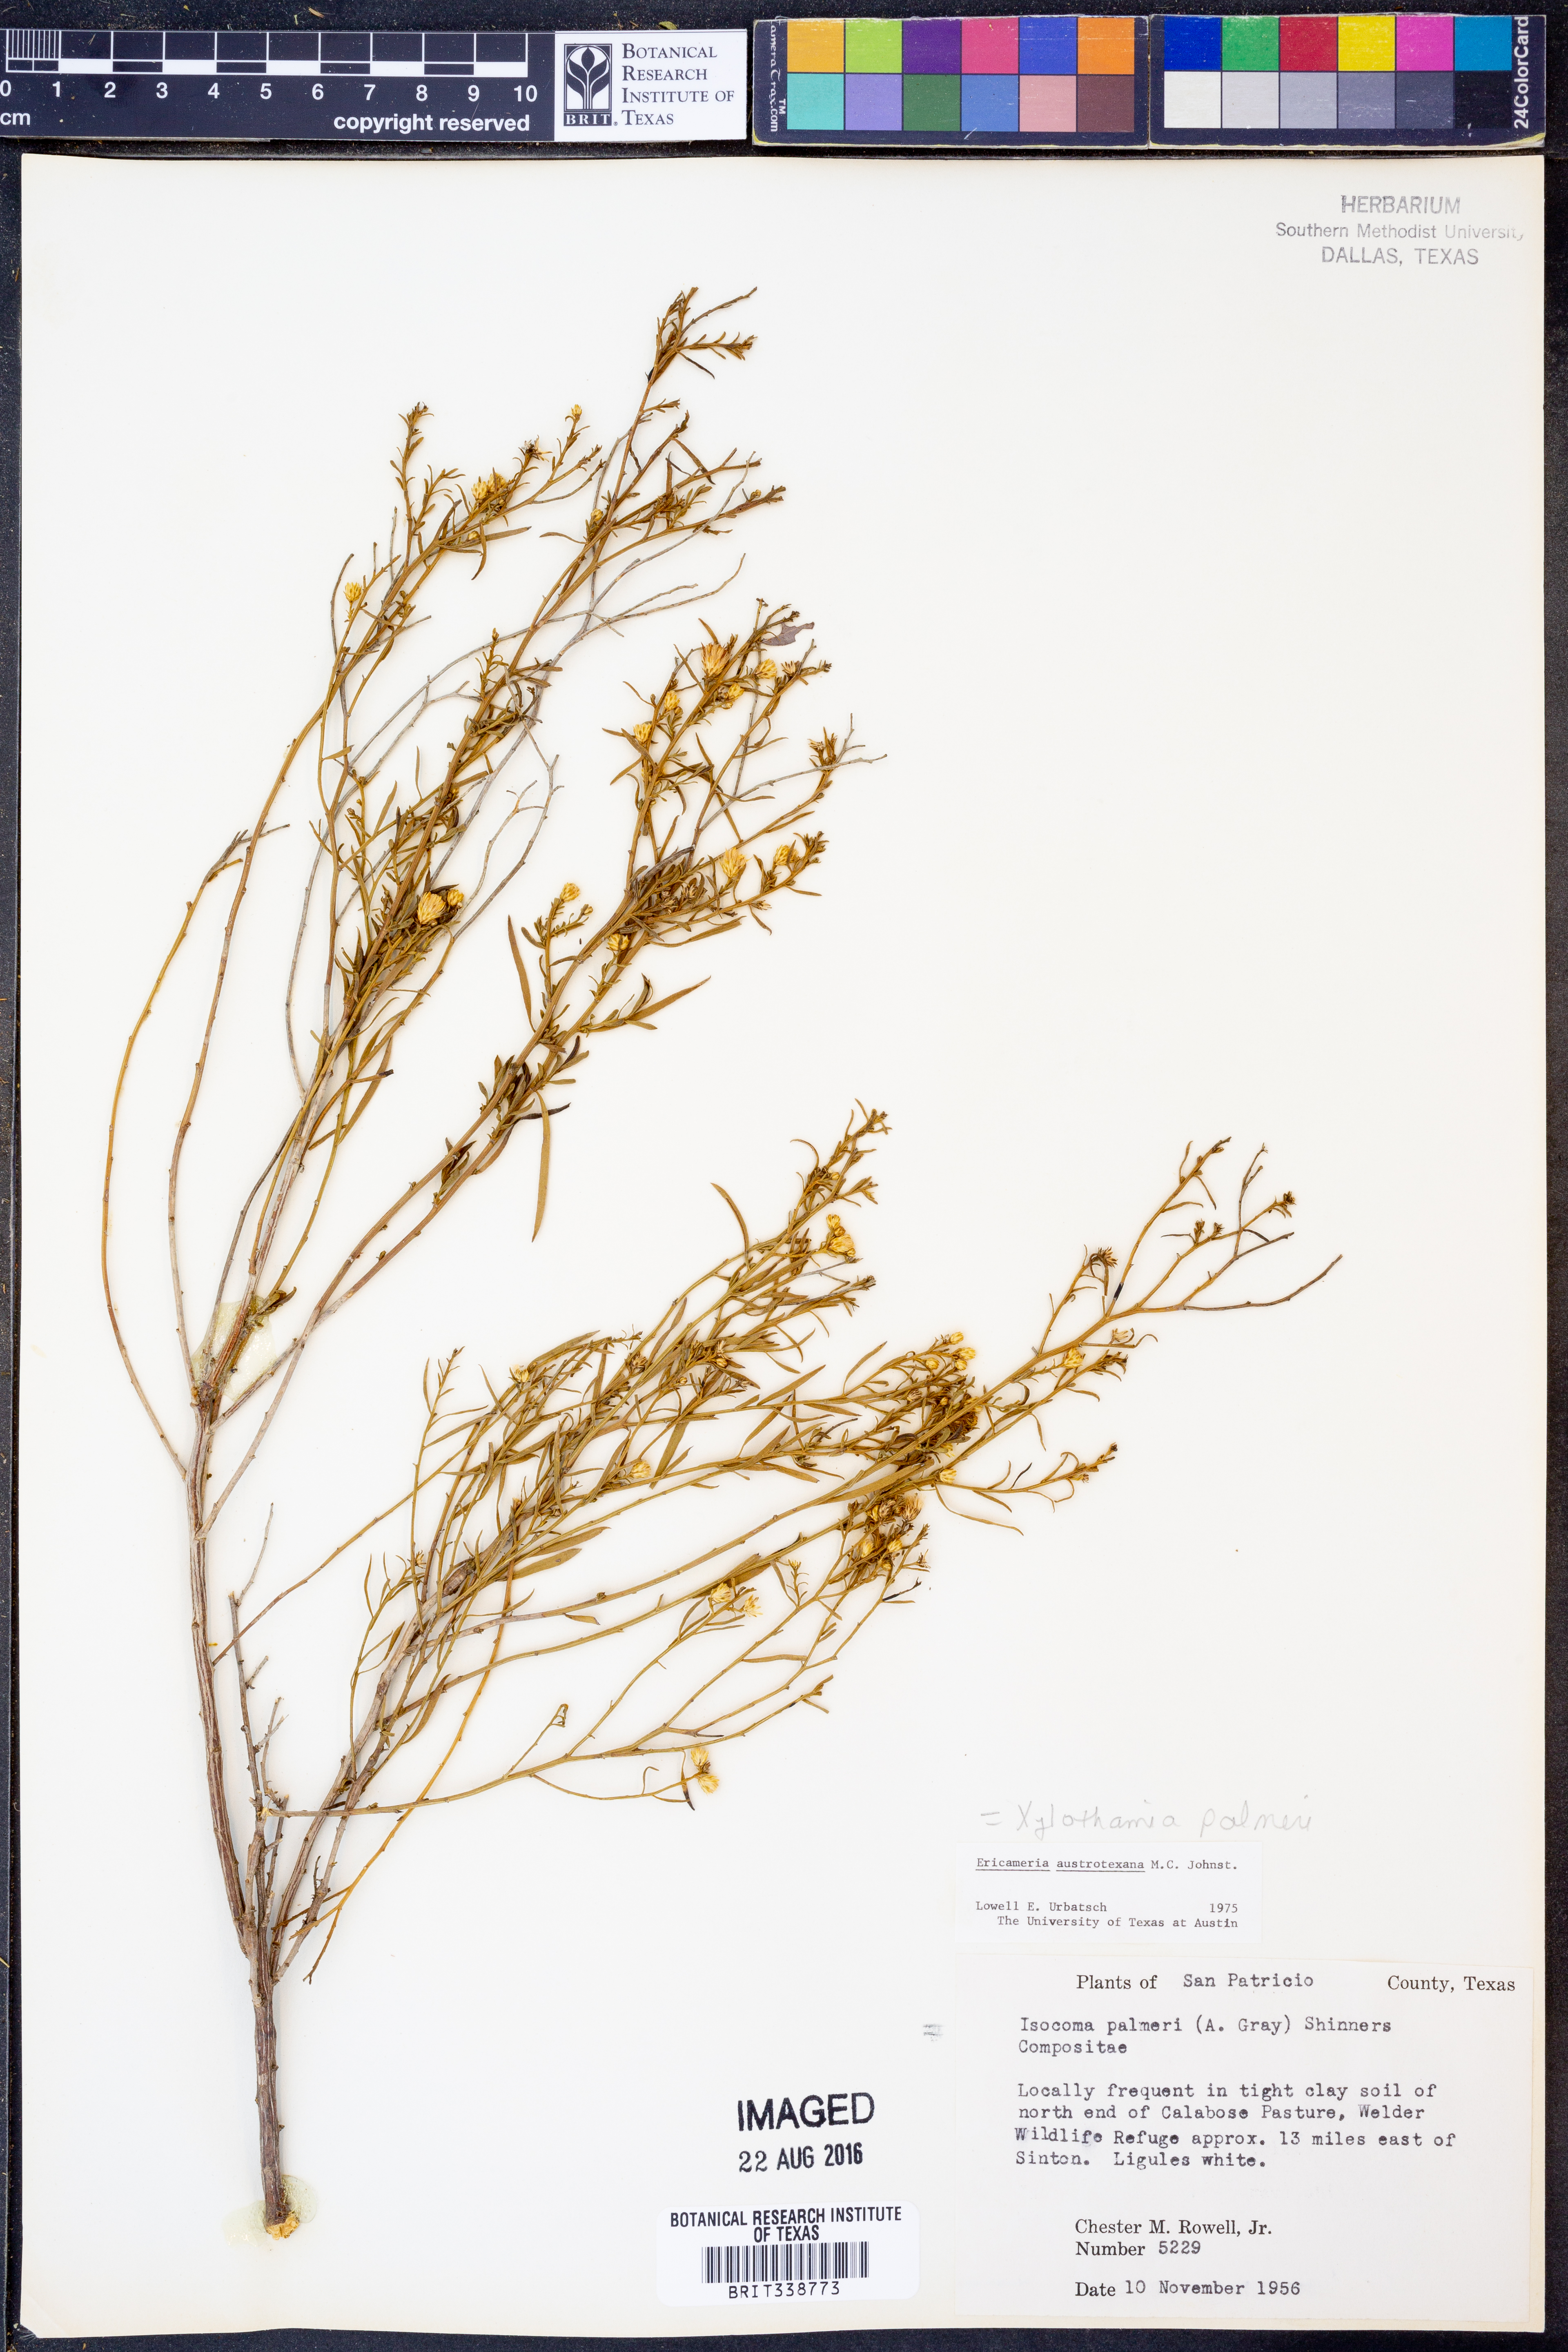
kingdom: Plantae
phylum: Tracheophyta
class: Magnoliopsida
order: Asterales
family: Asteraceae
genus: Medranoa
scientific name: Medranoa palmeri
